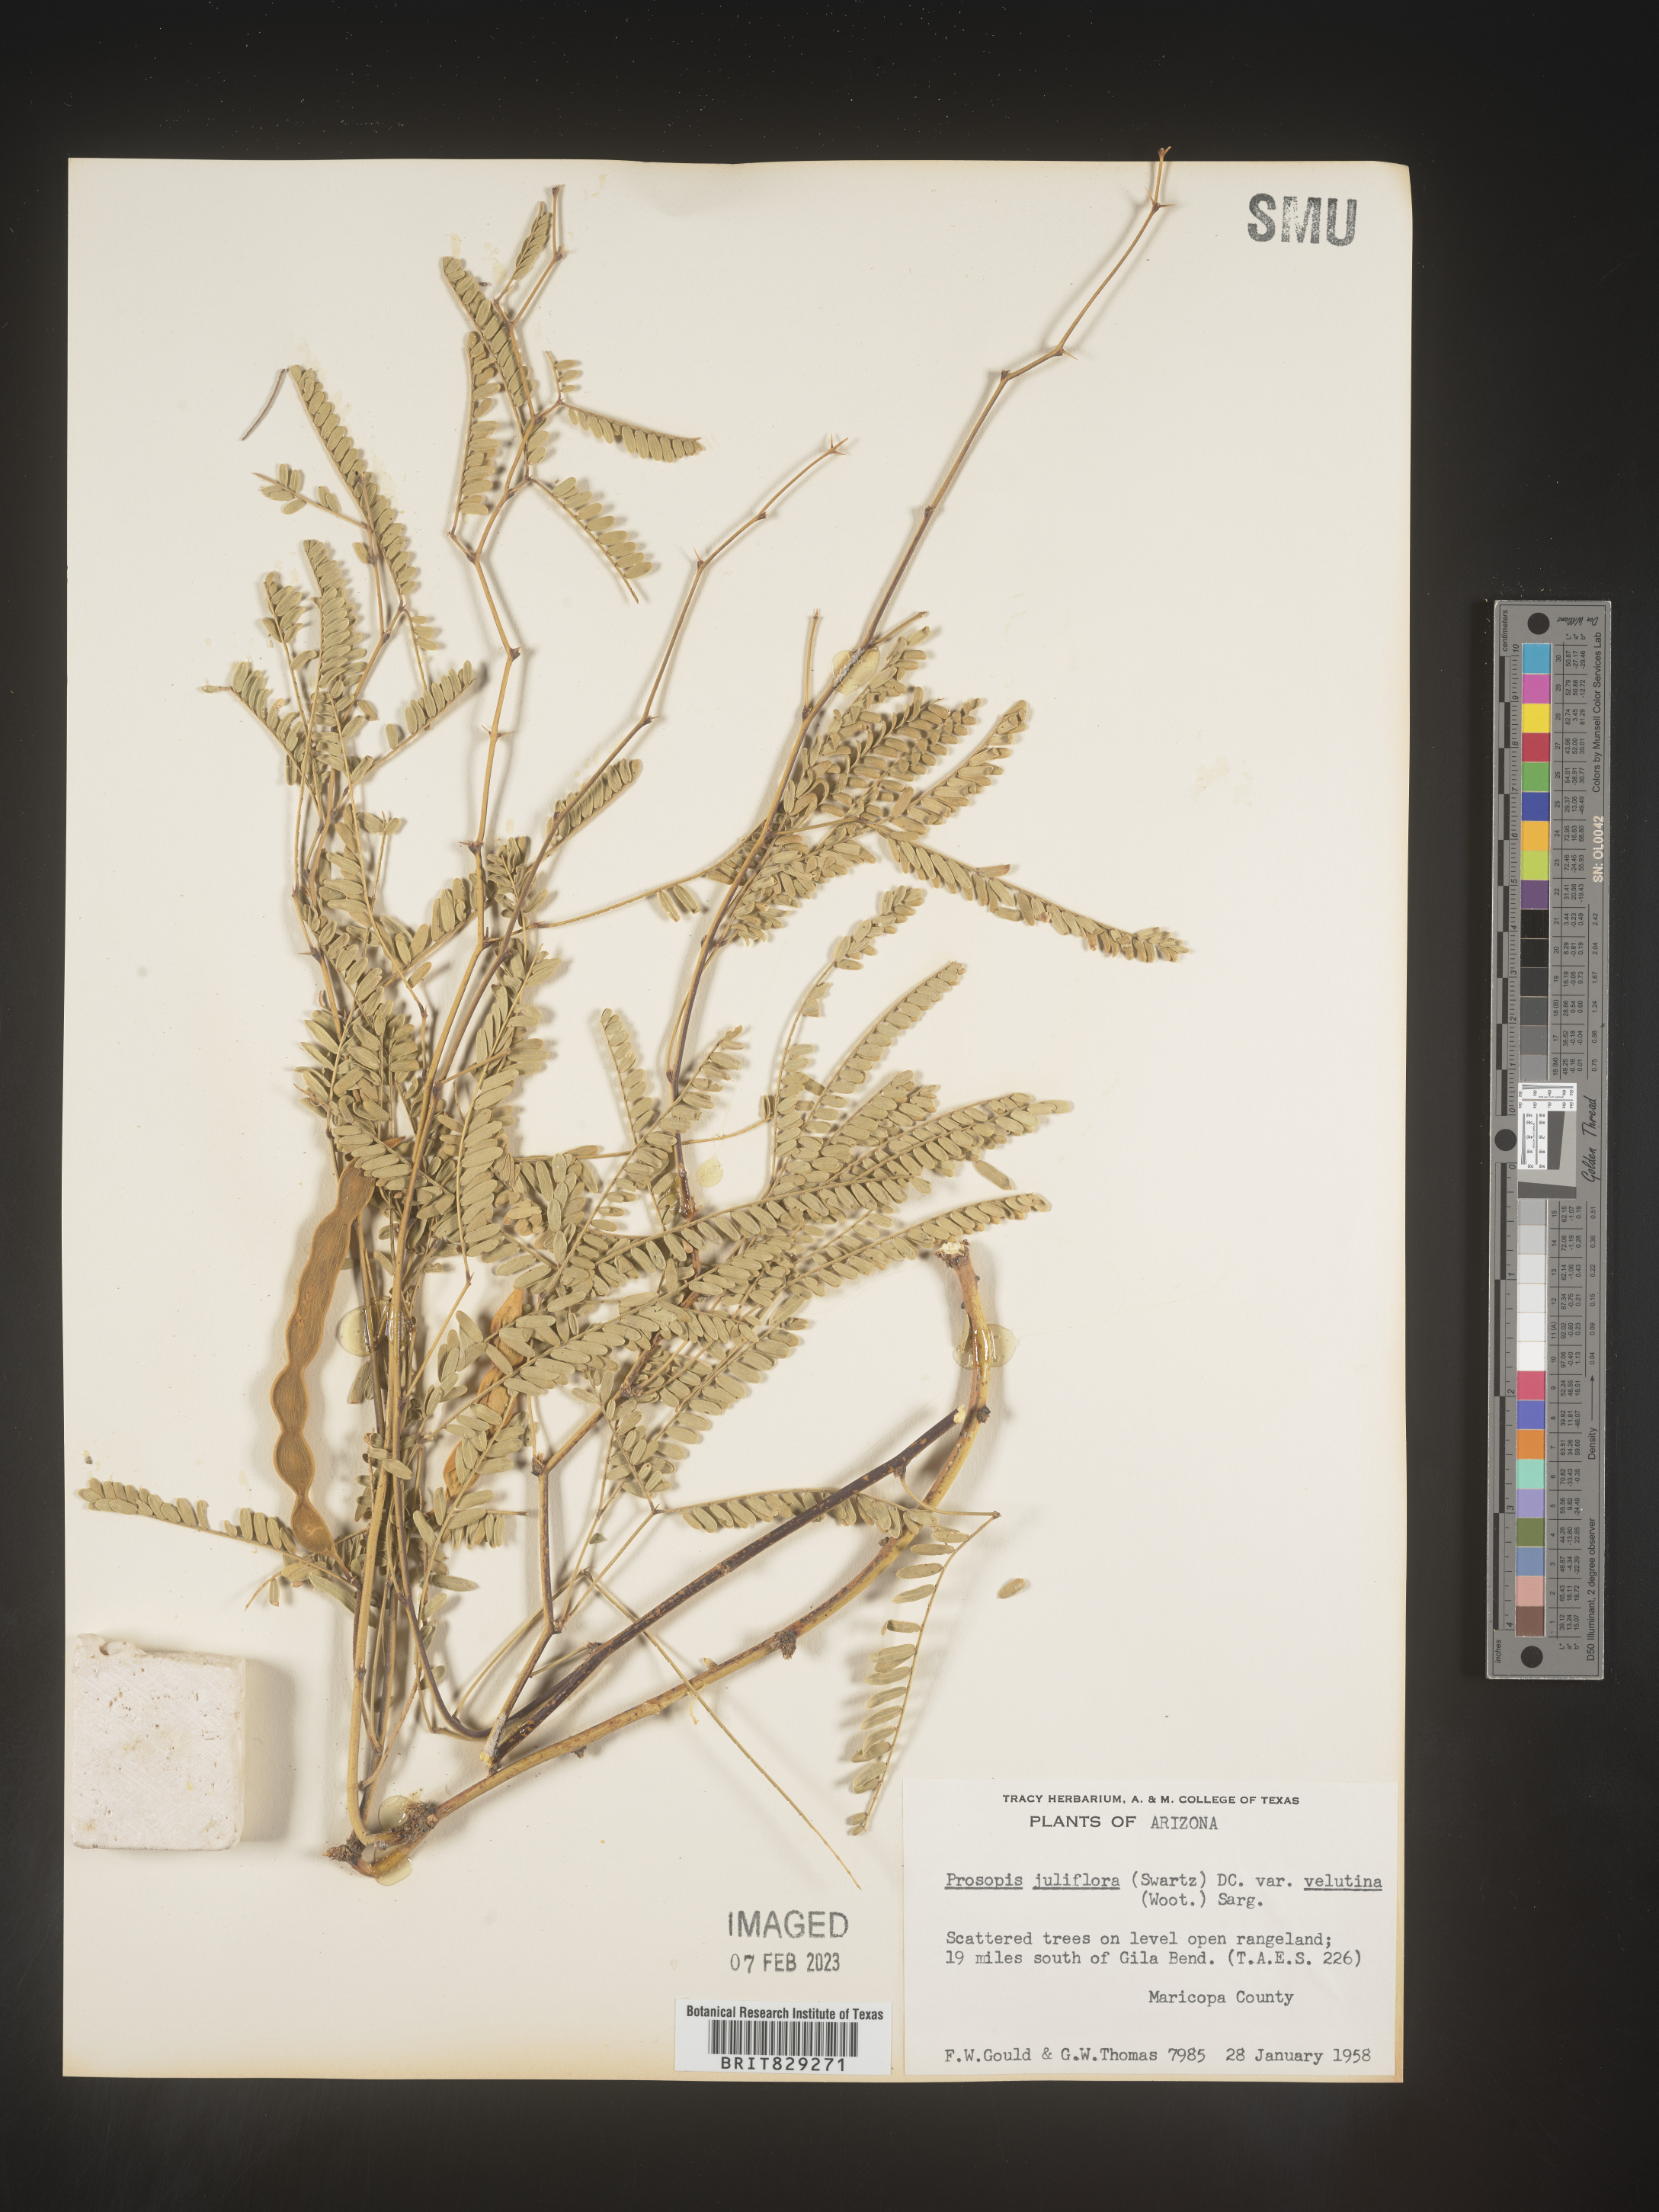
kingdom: Plantae
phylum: Tracheophyta
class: Magnoliopsida
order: Fabales
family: Fabaceae
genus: Prosopis
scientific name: Prosopis
